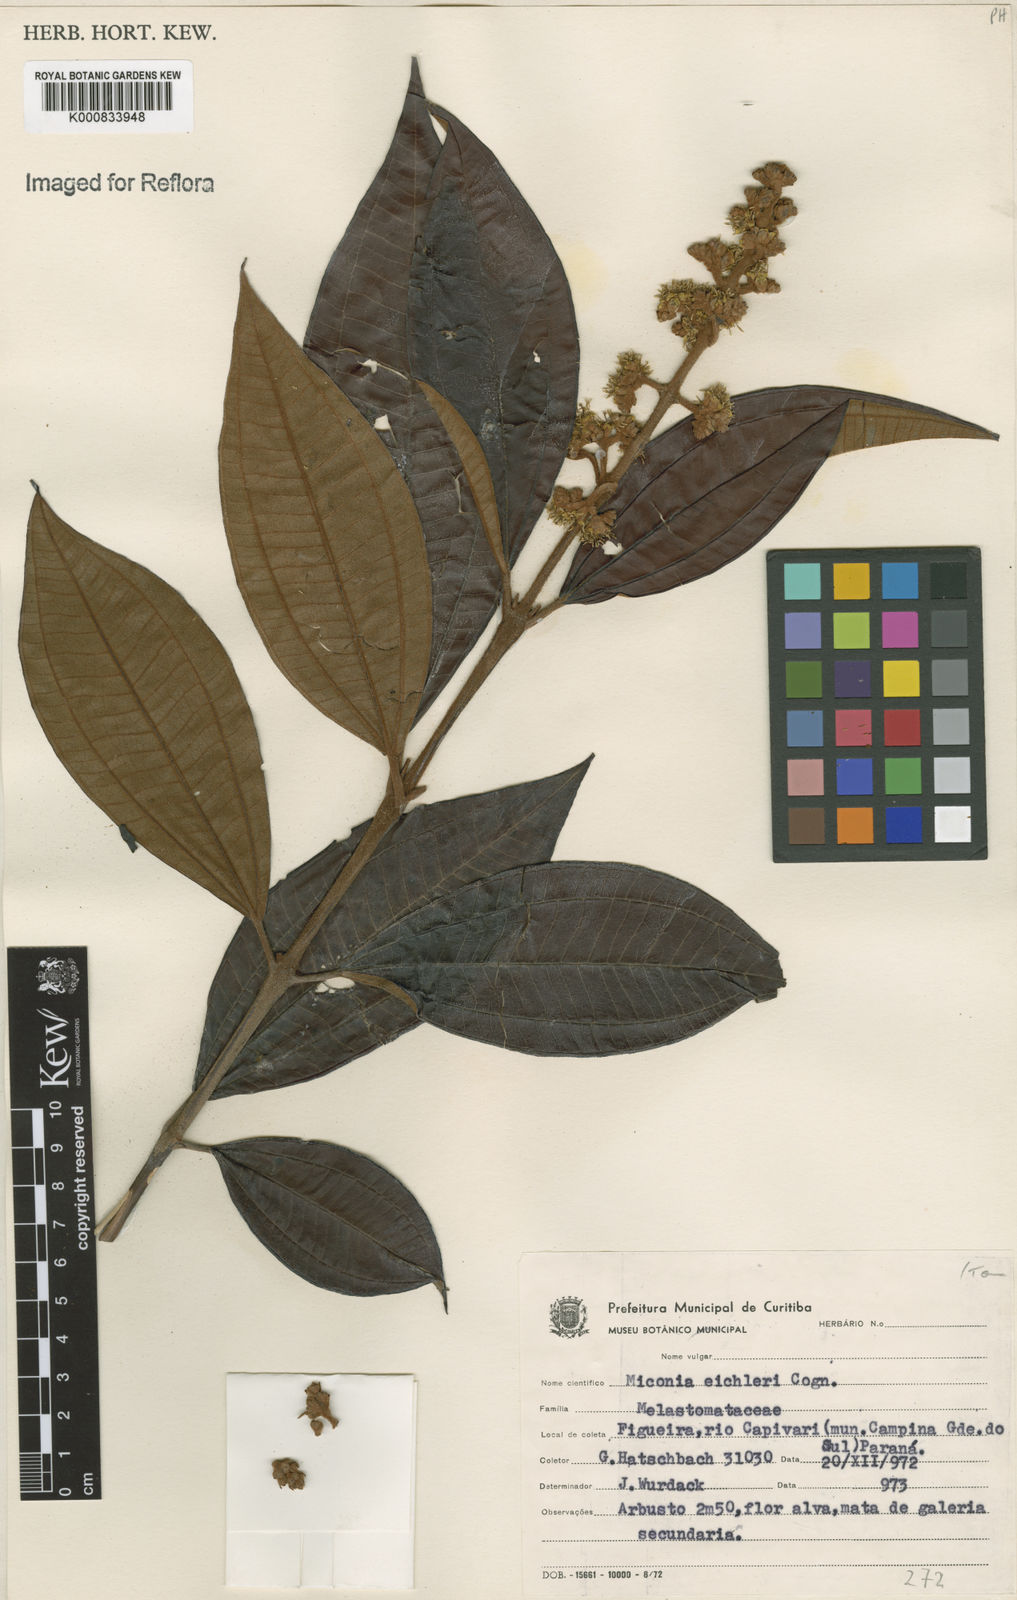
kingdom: Plantae
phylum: Tracheophyta
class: Magnoliopsida
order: Myrtales
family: Melastomataceae
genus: Miconia
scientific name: Miconia valtheri
